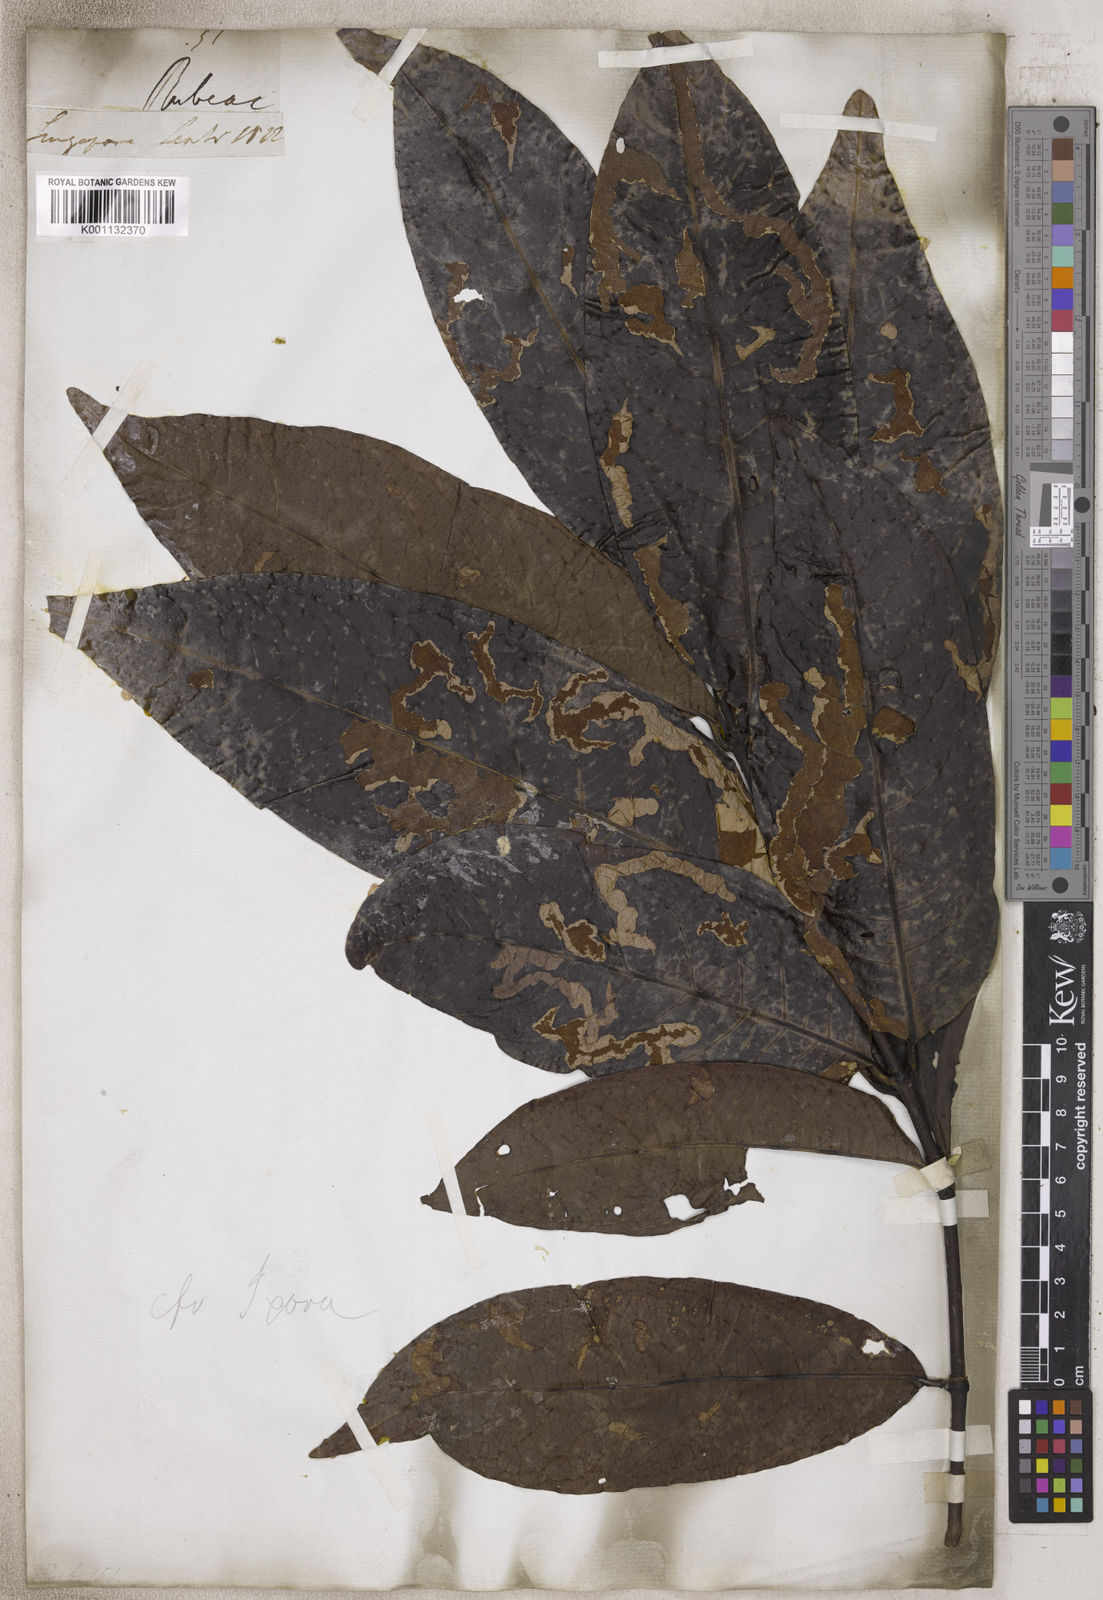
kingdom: Plantae
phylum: Tracheophyta
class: Magnoliopsida
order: Gentianales
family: Rubiaceae
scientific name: Rubiaceae
